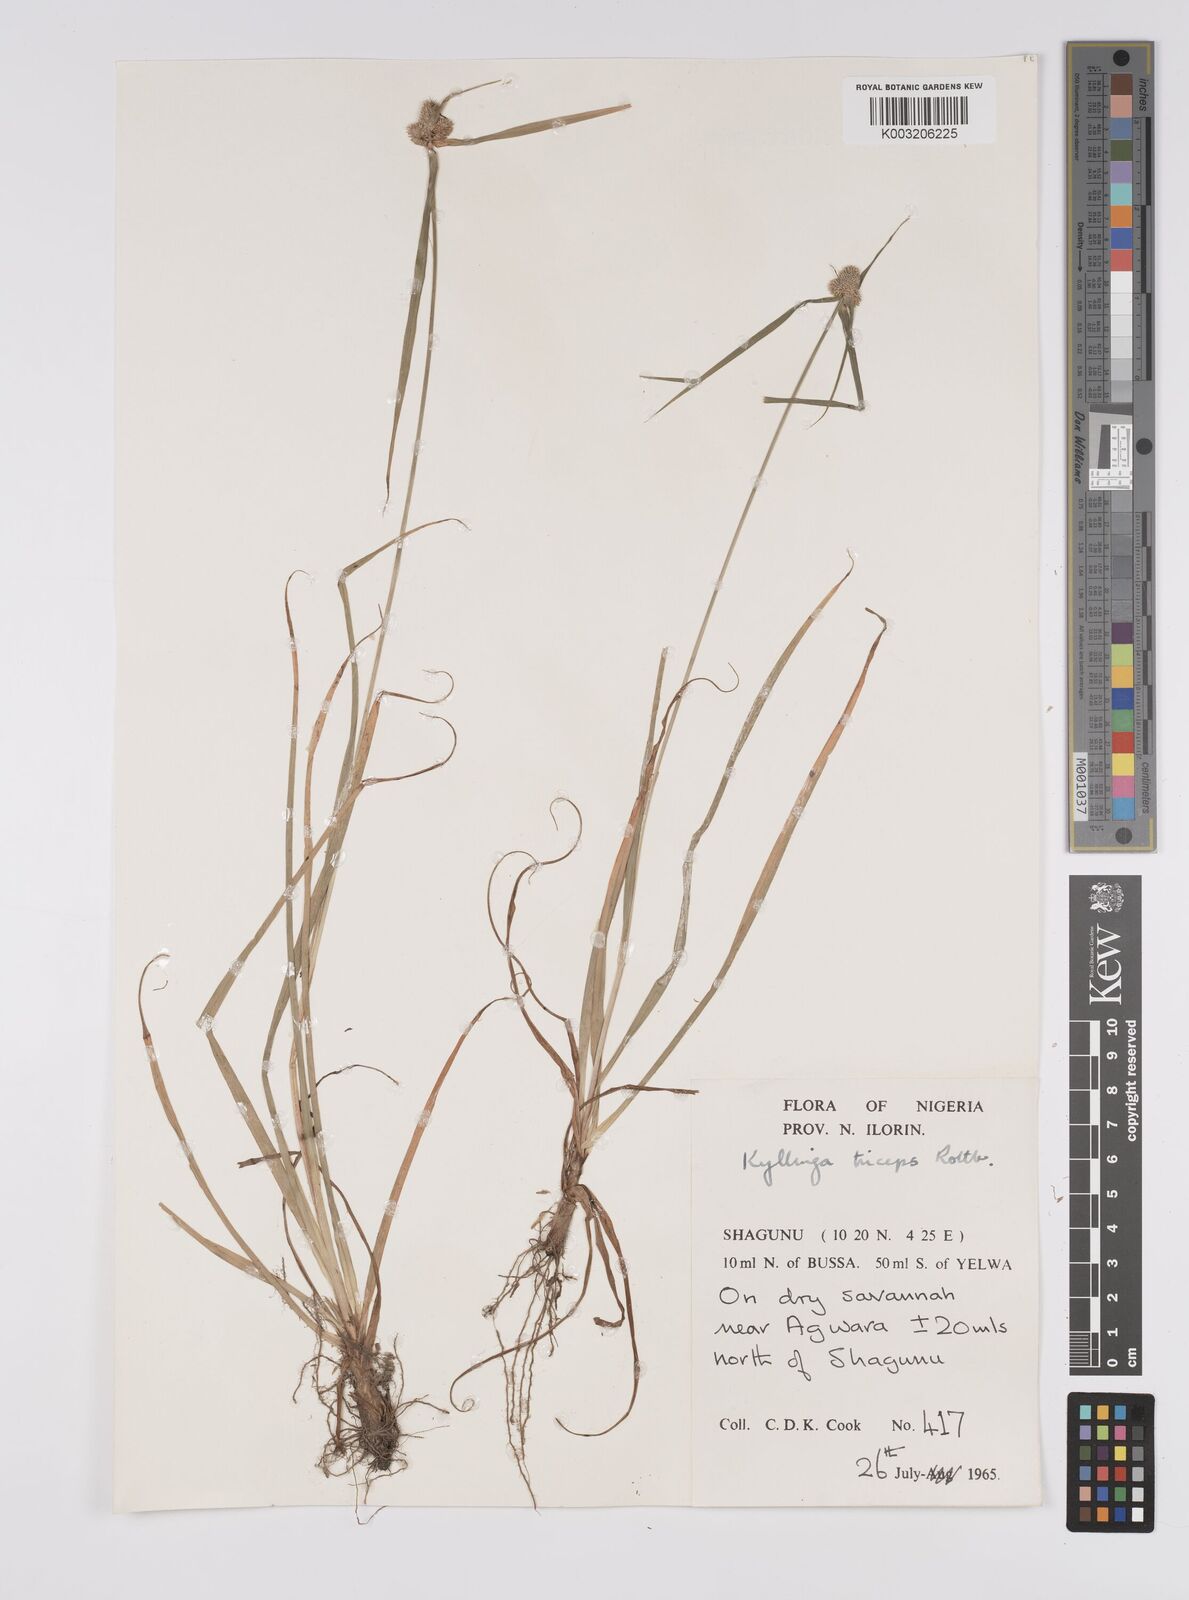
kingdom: Plantae
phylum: Tracheophyta
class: Liliopsida
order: Poales
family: Cyperaceae
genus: Cyperus
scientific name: Cyperus
